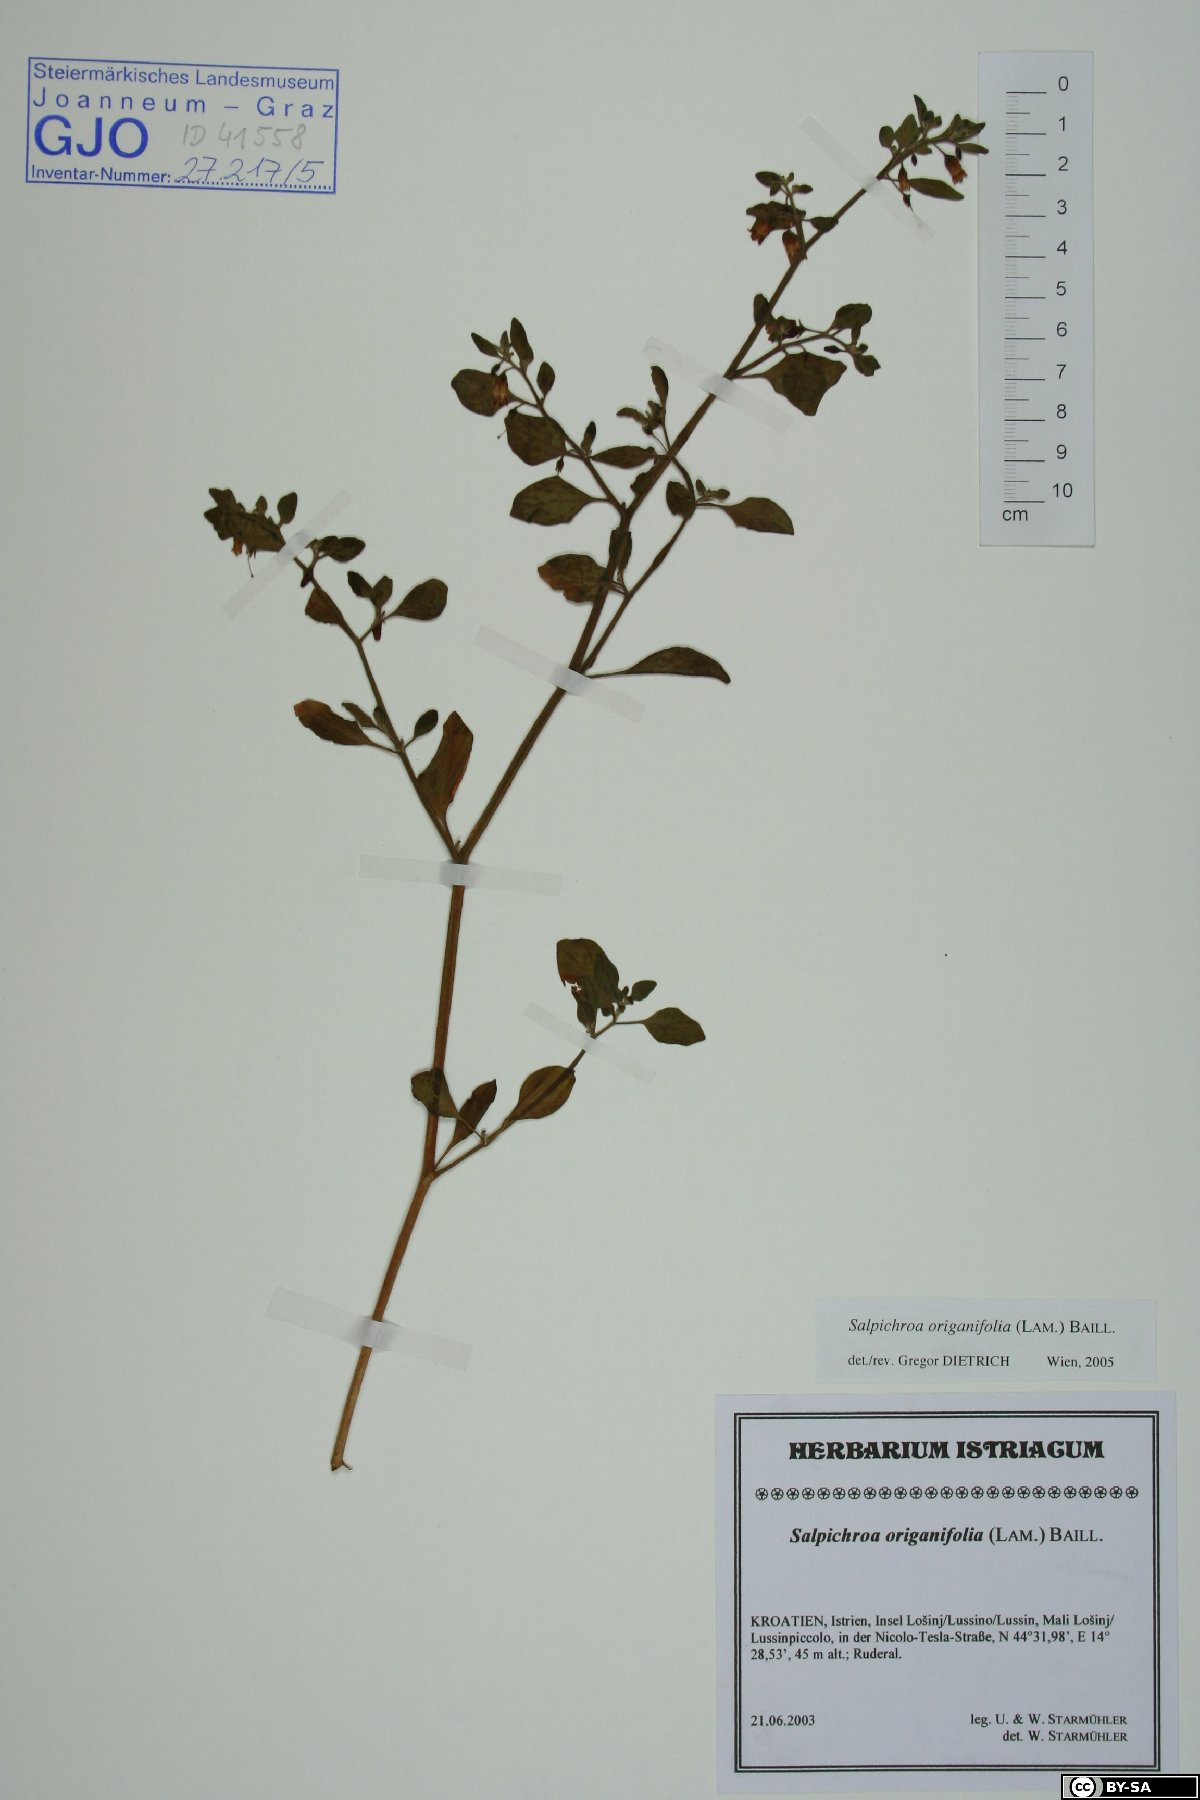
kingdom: Plantae
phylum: Tracheophyta
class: Magnoliopsida
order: Solanales
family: Solanaceae
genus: Salpichroa
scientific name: Salpichroa origanifolia
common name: Lily-of-the-valley-vine
